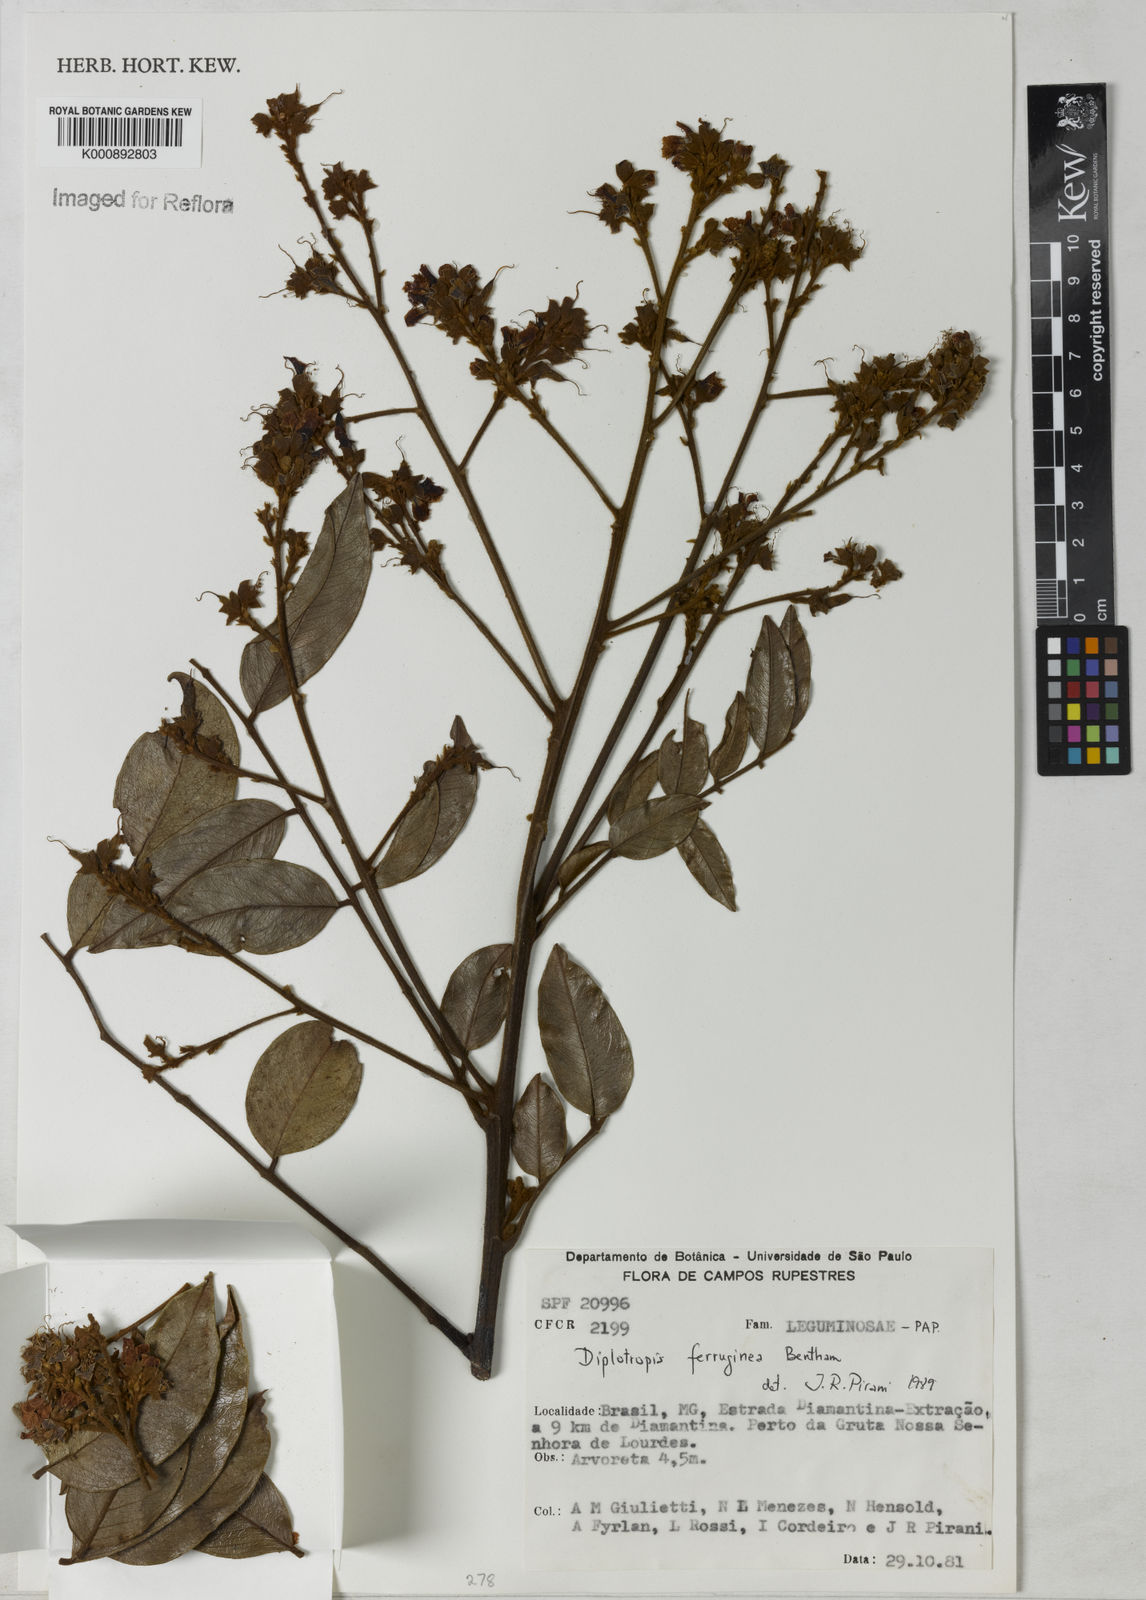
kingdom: Plantae
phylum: Tracheophyta
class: Magnoliopsida
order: Fabales
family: Fabaceae
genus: Diplotropis
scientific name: Diplotropis ferruginea
